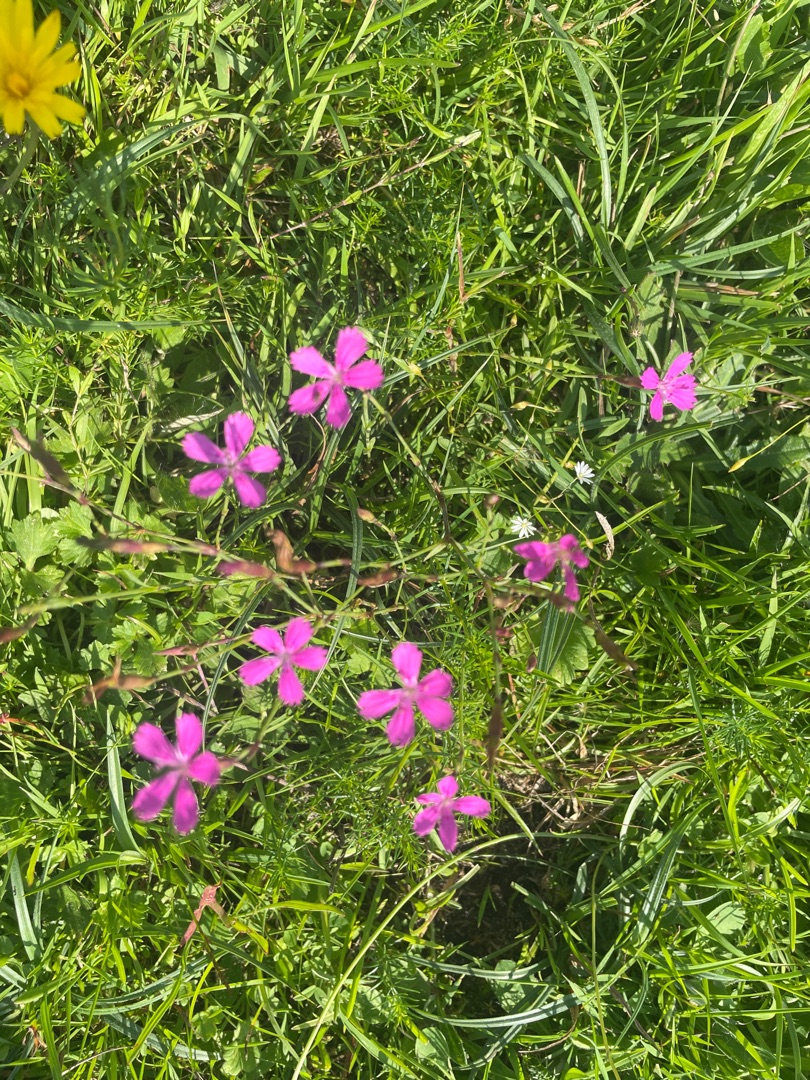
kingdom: Plantae
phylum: Tracheophyta
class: Magnoliopsida
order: Caryophyllales
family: Caryophyllaceae
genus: Dianthus
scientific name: Dianthus deltoides
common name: Bakke-nellike
